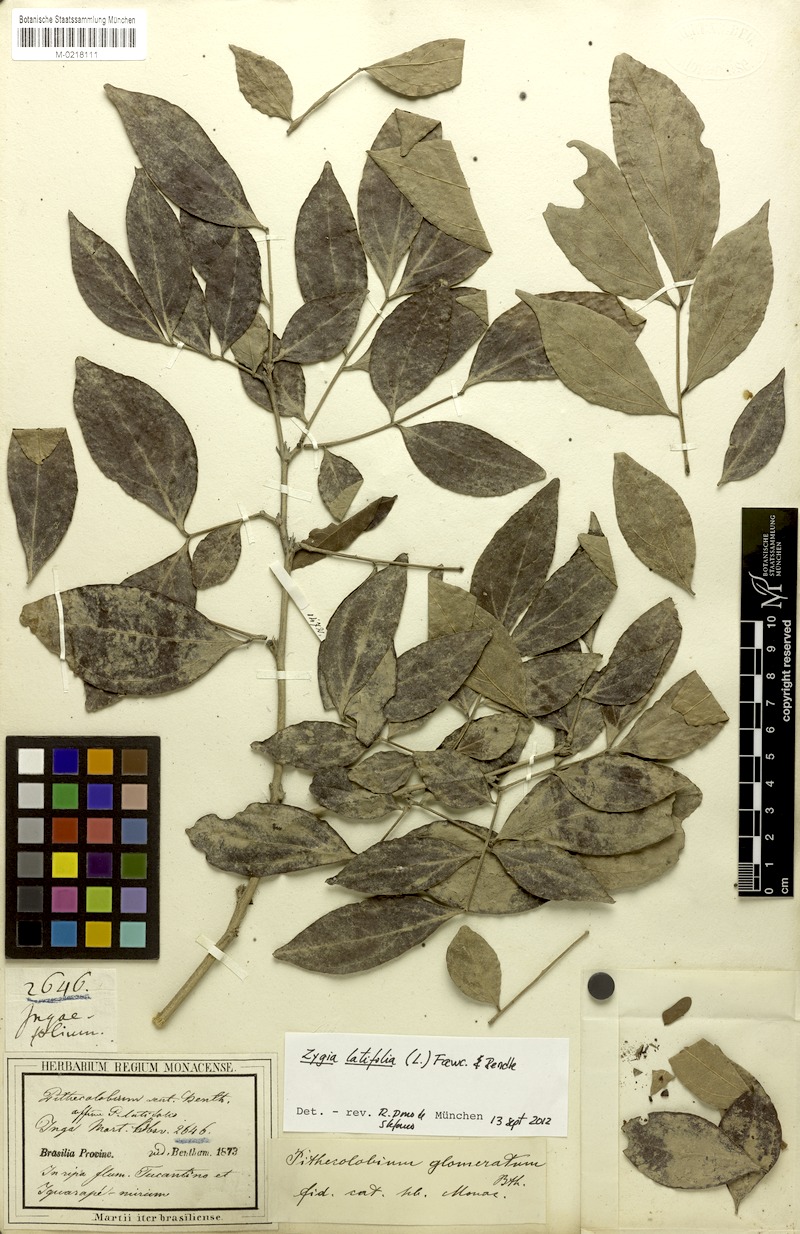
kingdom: Plantae
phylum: Tracheophyta
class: Magnoliopsida
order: Fabales
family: Fabaceae
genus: Zygia
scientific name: Zygia latifolia
